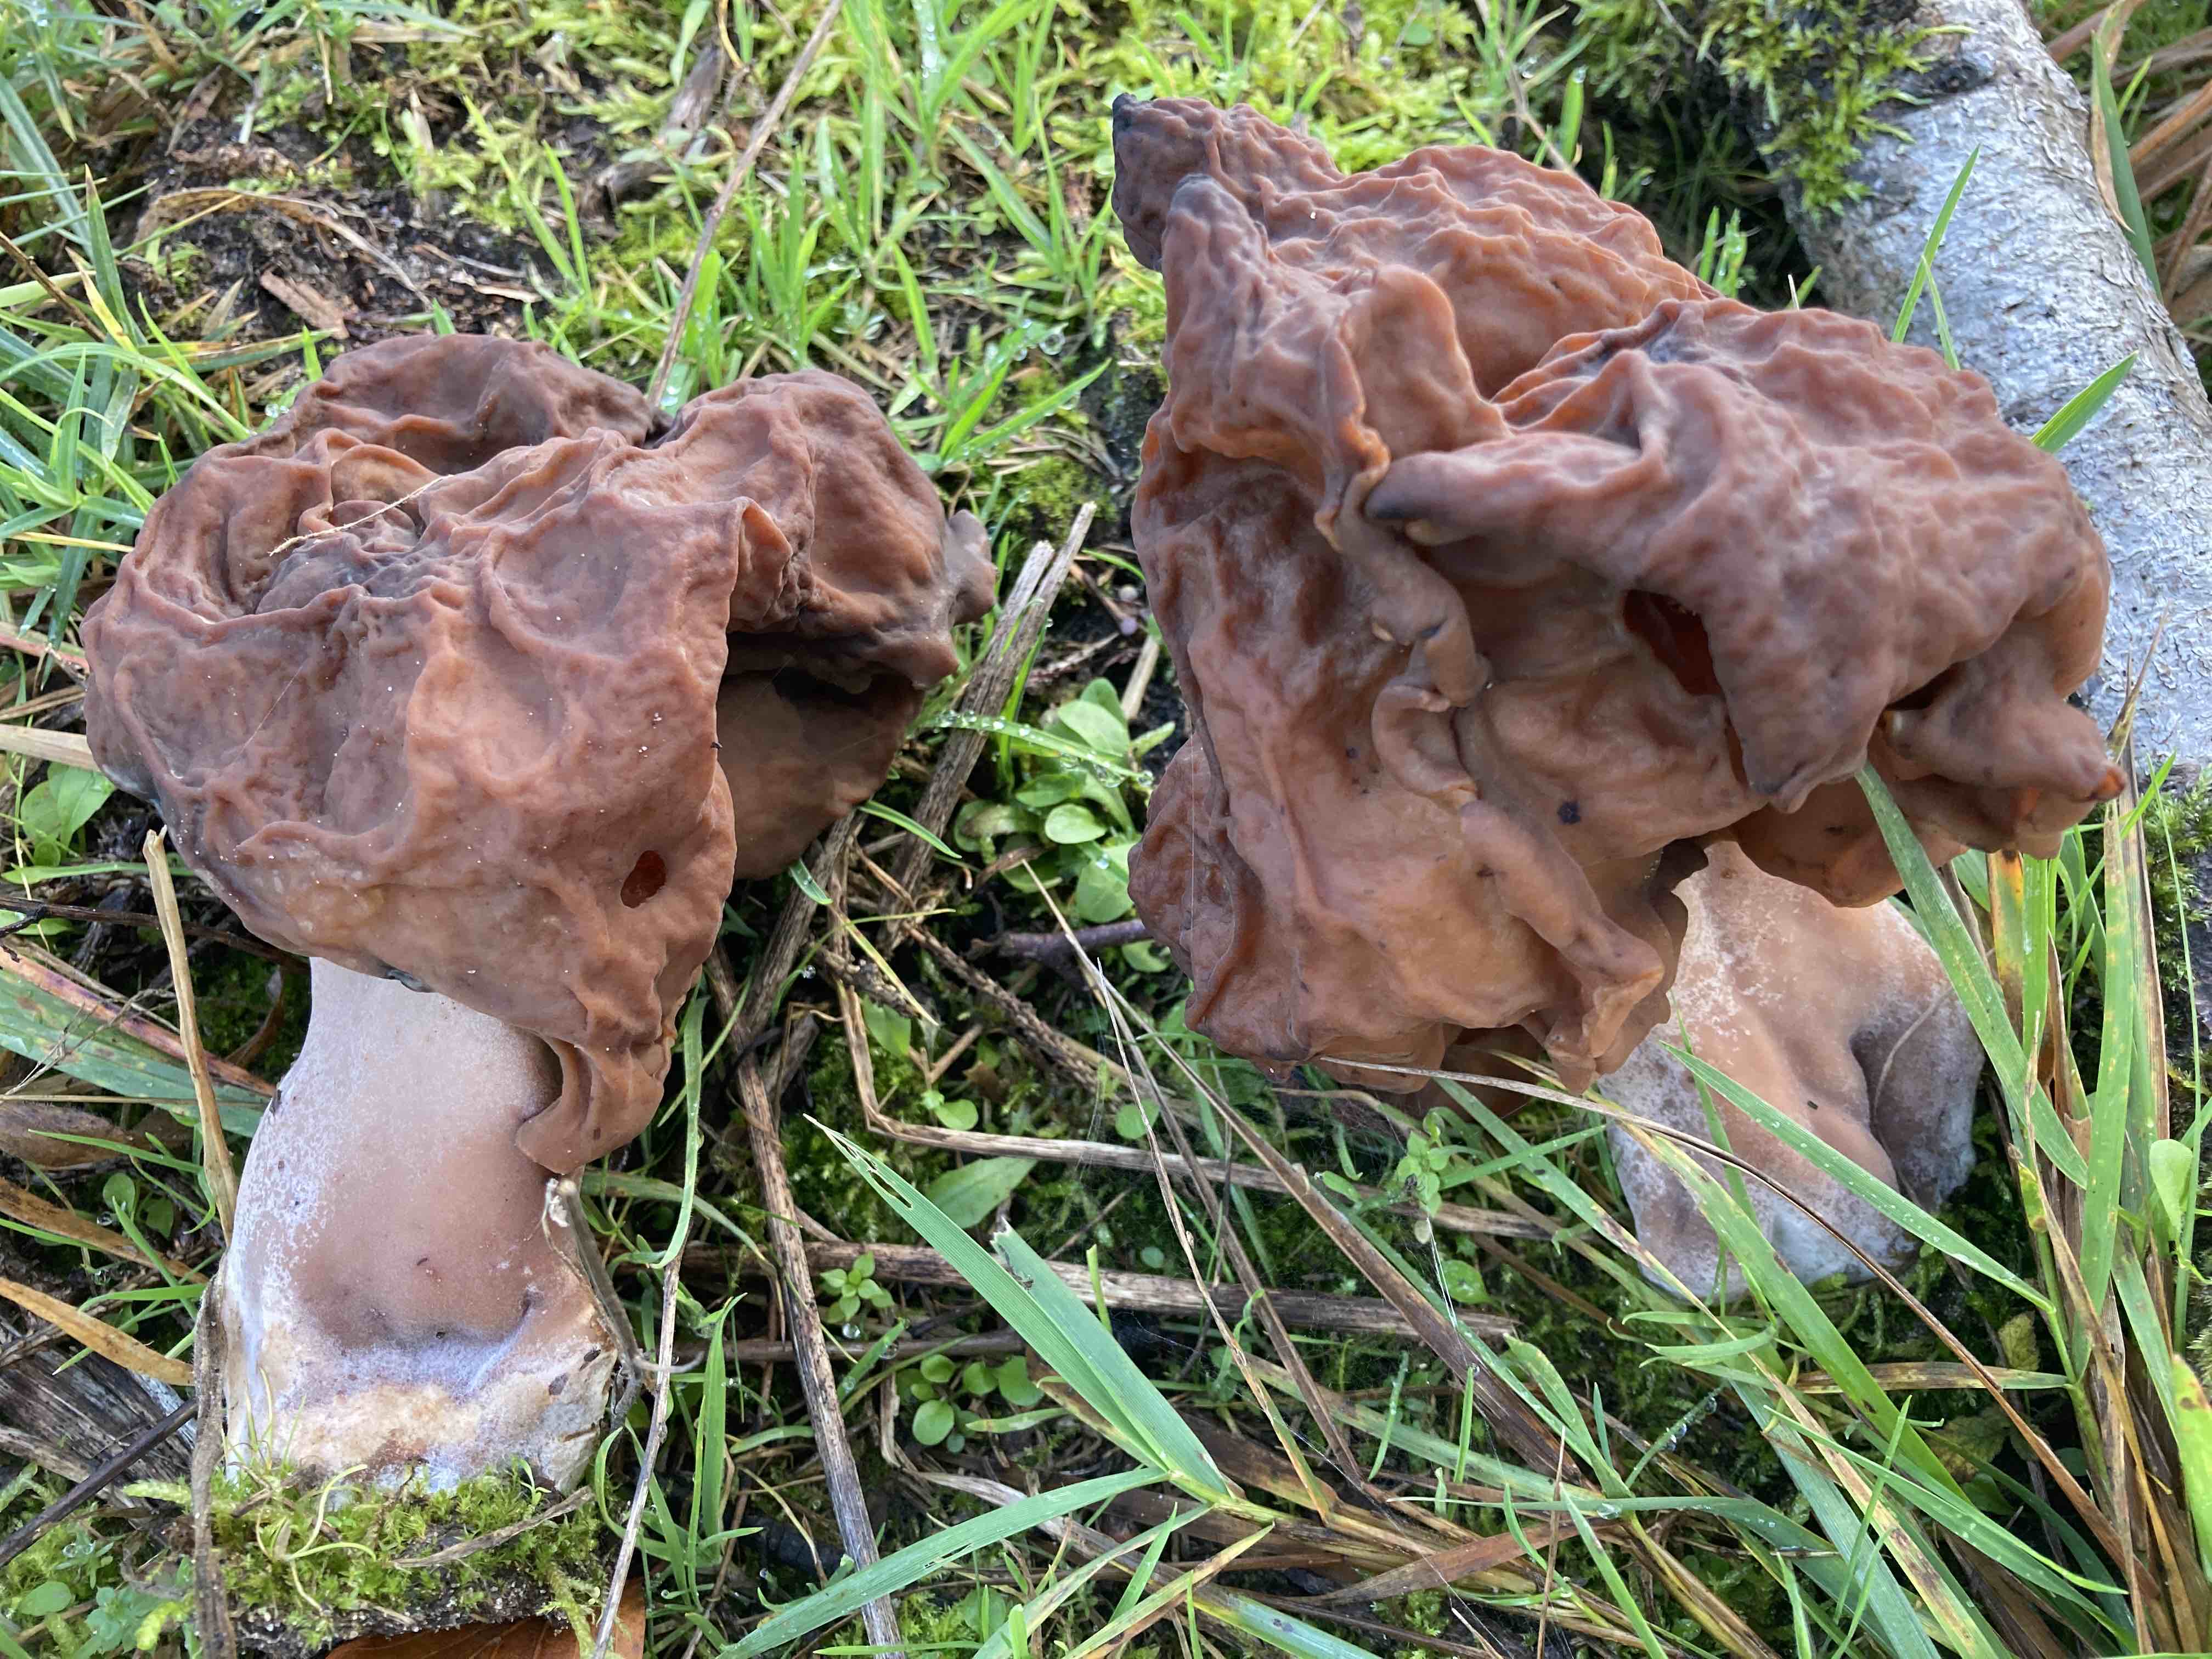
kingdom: Fungi
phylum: Ascomycota
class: Pezizomycetes
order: Pezizales
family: Discinaceae
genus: Gyromitra
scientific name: Gyromitra infula
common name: bispehue-stenmorkel
